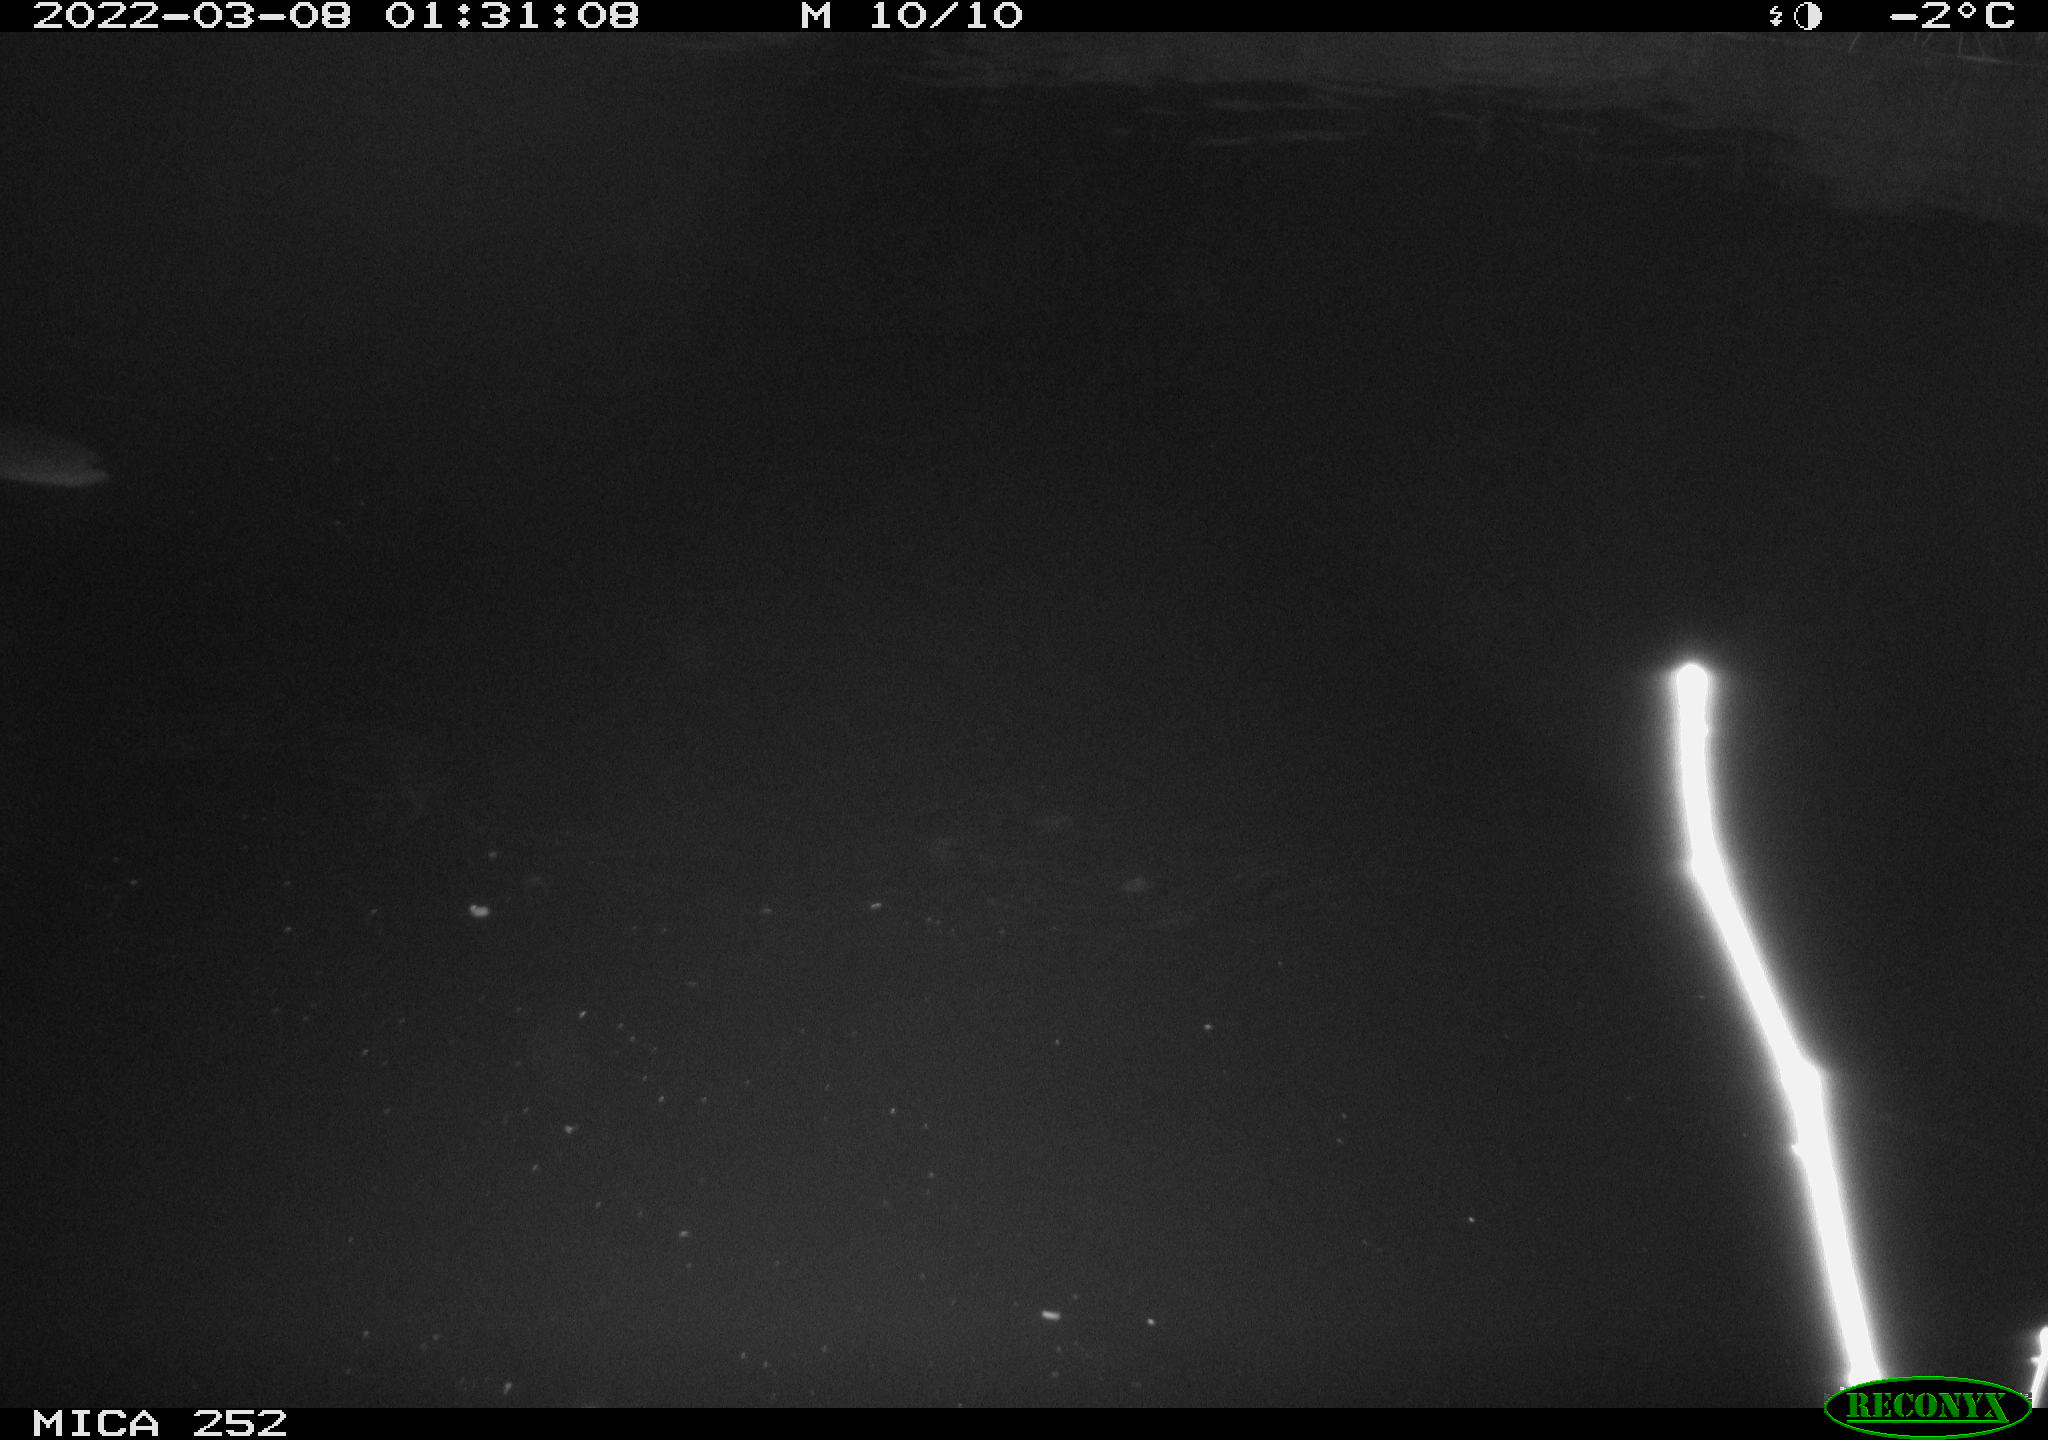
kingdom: Animalia
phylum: Chordata
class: Mammalia
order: Rodentia
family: Castoridae
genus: Castor
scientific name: Castor fiber
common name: Eurasian beaver
